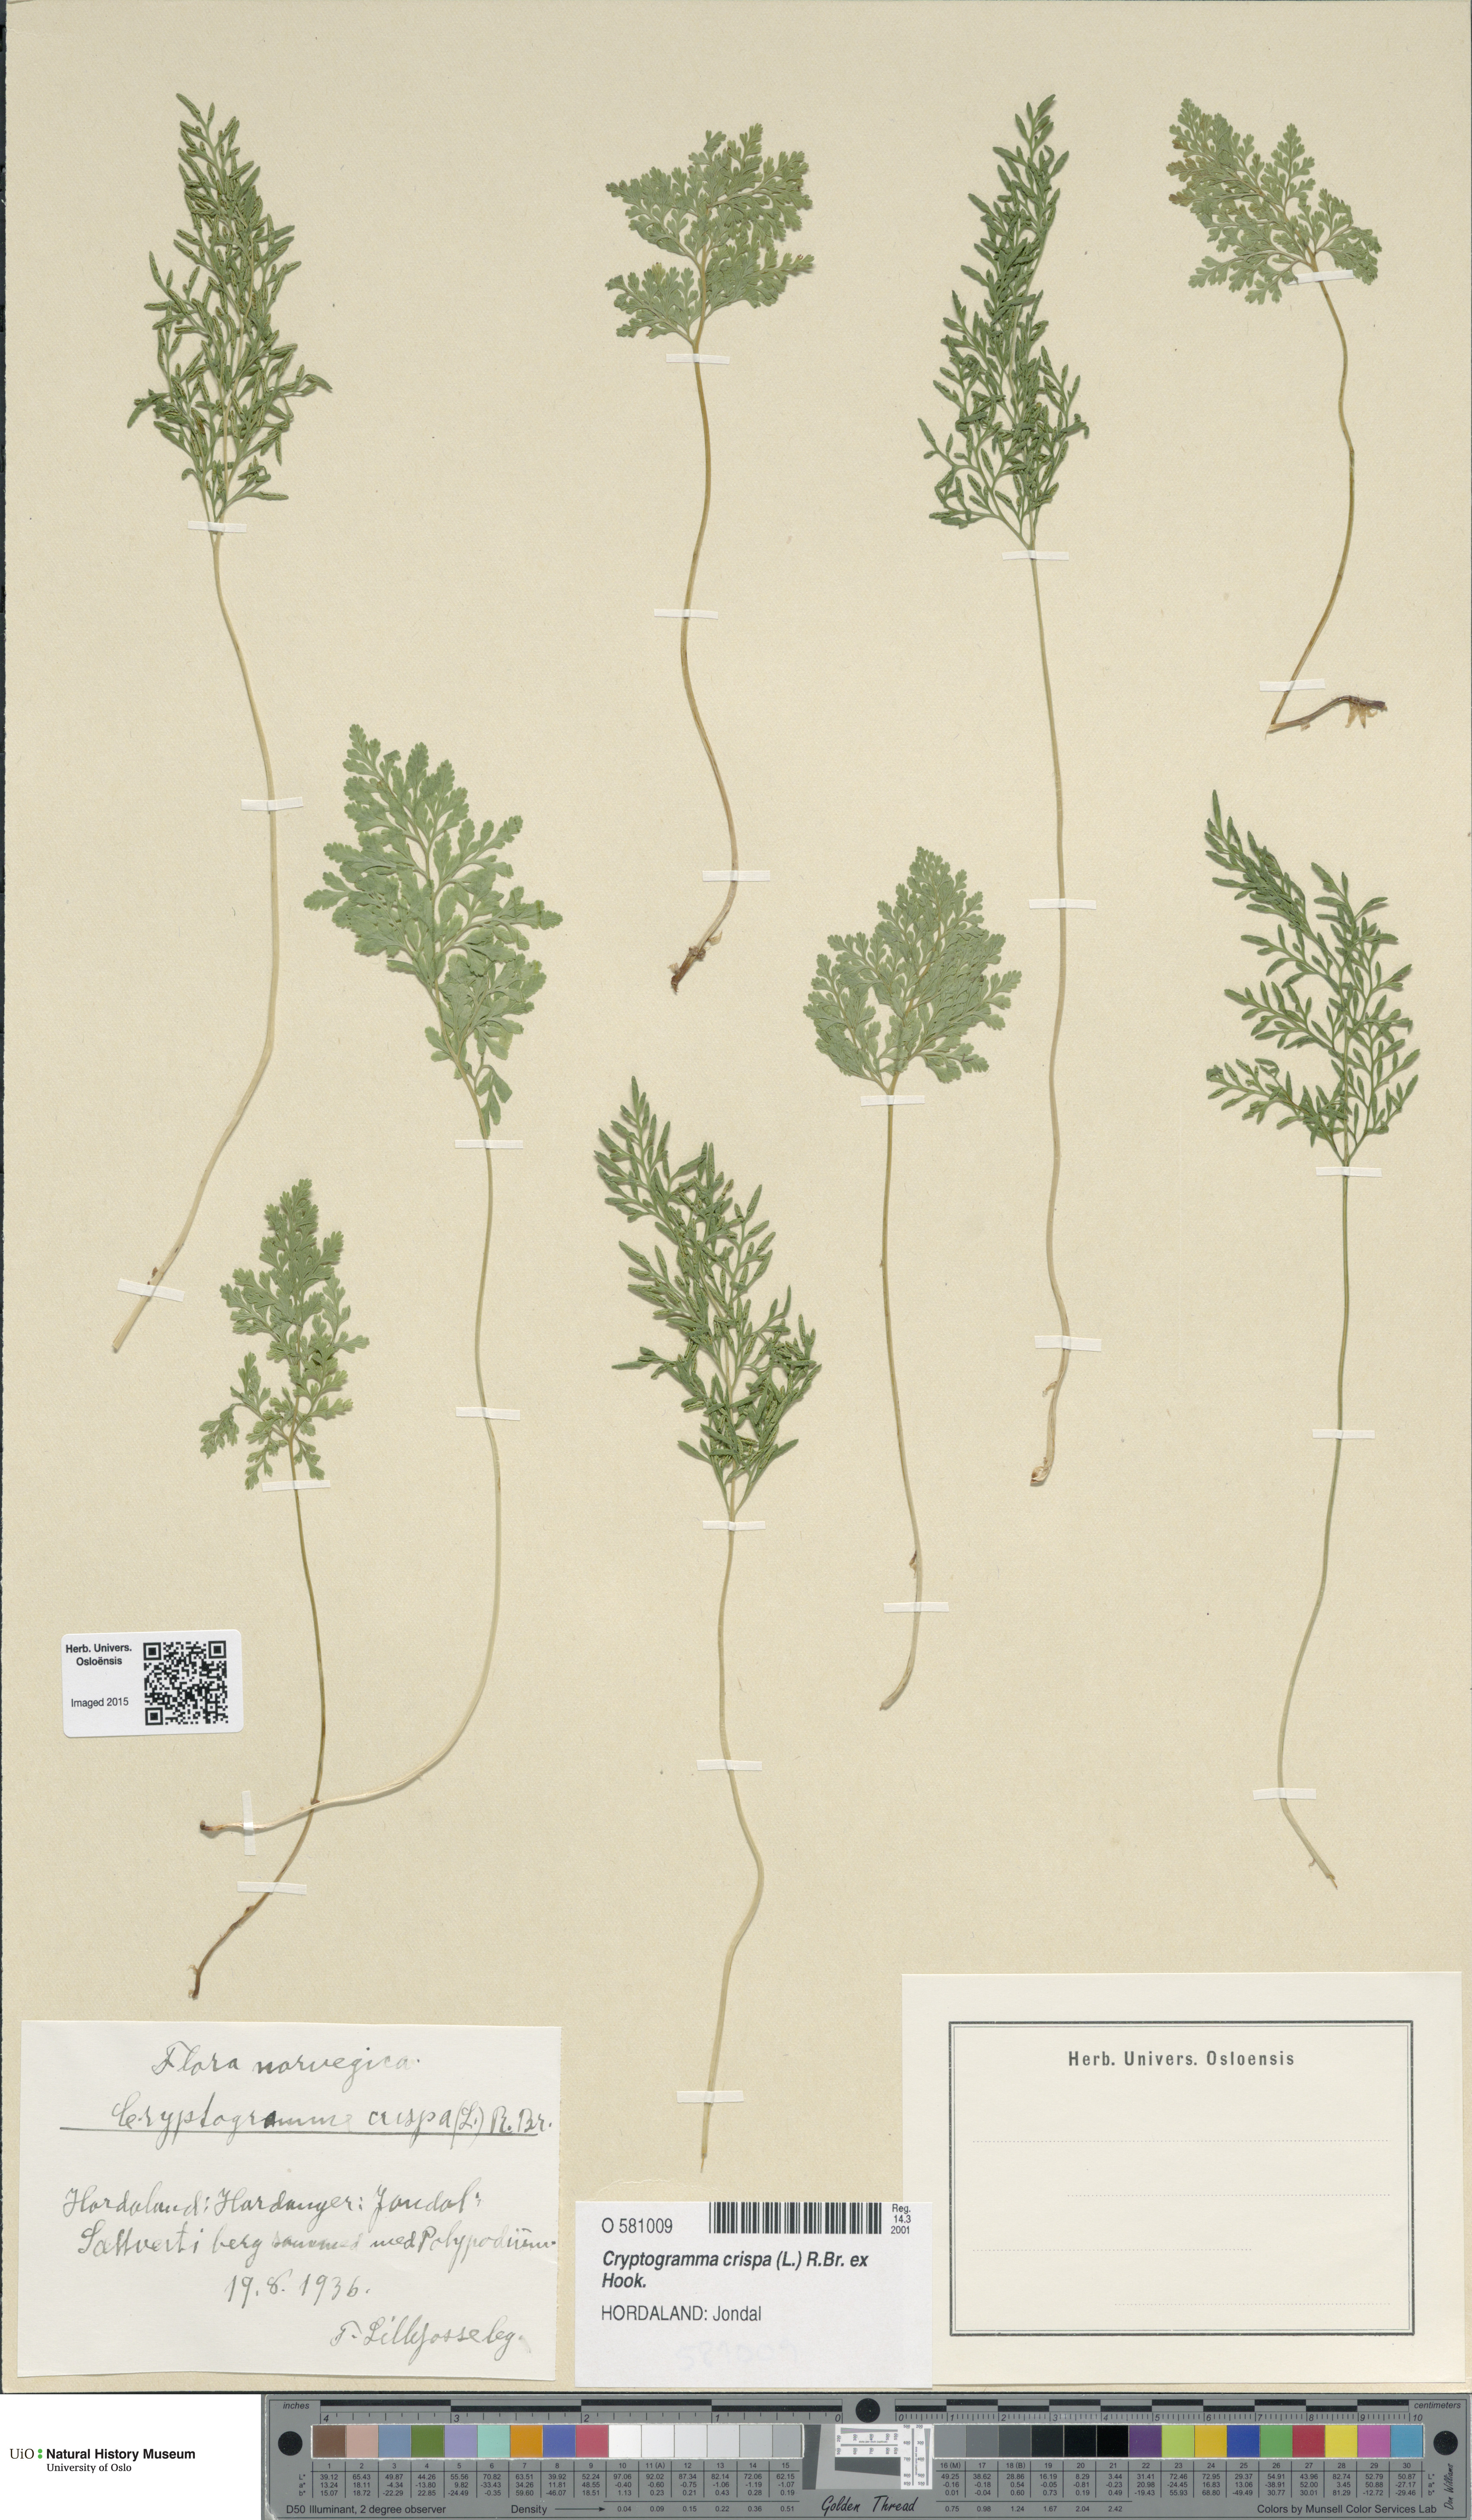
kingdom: Plantae
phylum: Tracheophyta
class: Polypodiopsida
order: Polypodiales
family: Pteridaceae
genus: Cryptogramma
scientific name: Cryptogramma crispa
